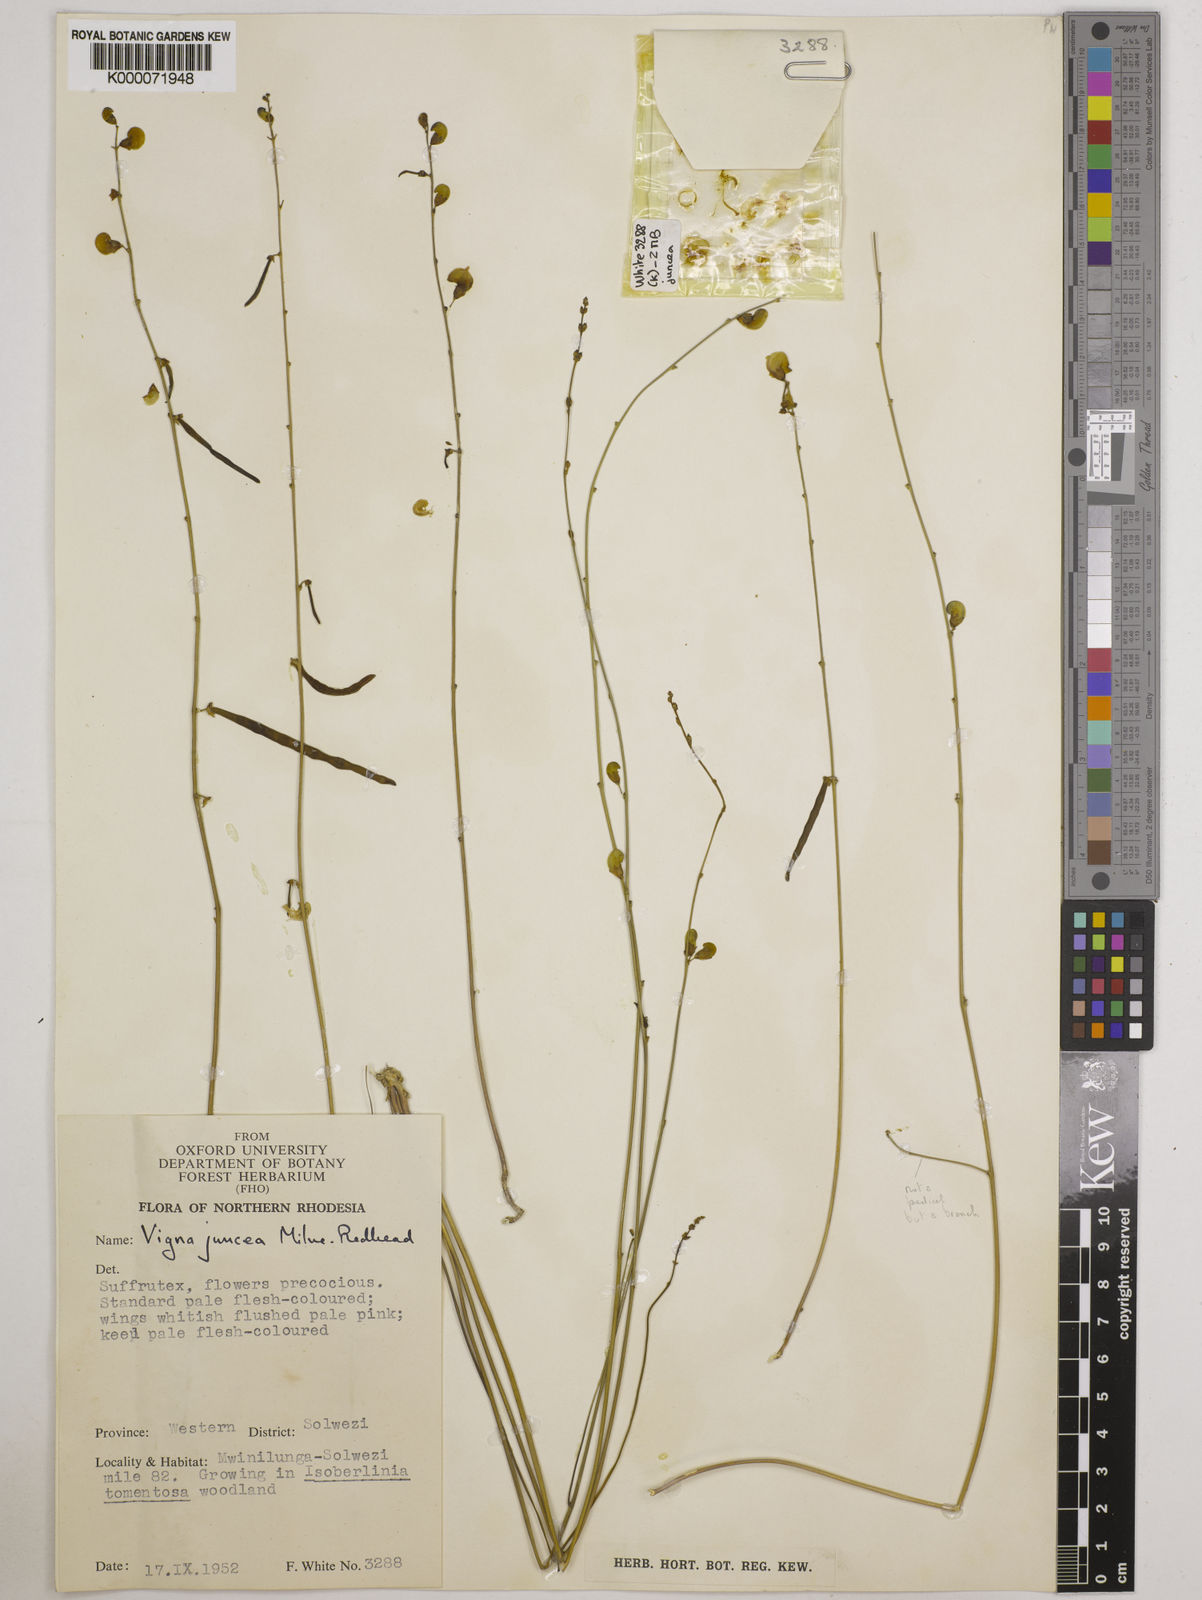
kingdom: Plantae
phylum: Tracheophyta
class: Magnoliopsida
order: Fabales
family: Fabaceae
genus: Vigna
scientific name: Vigna juncea
